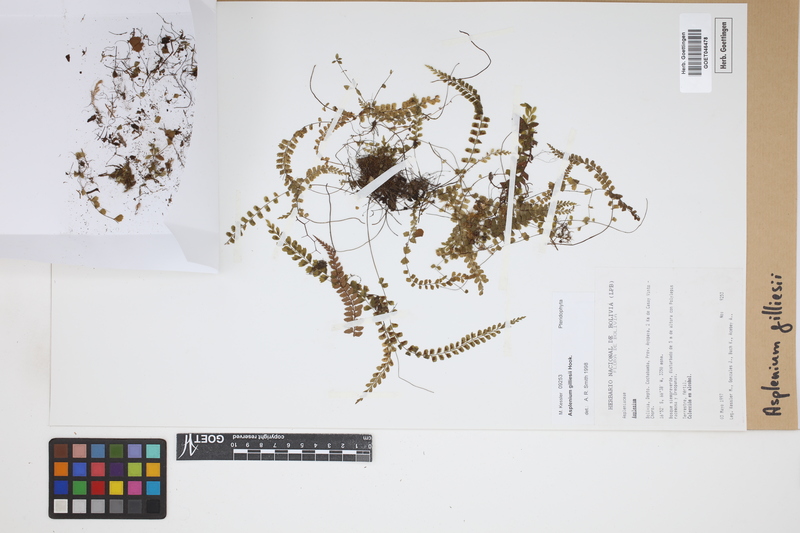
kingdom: Plantae
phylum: Tracheophyta
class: Polypodiopsida
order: Polypodiales
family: Aspleniaceae
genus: Asplenium
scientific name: Asplenium gilliesii
